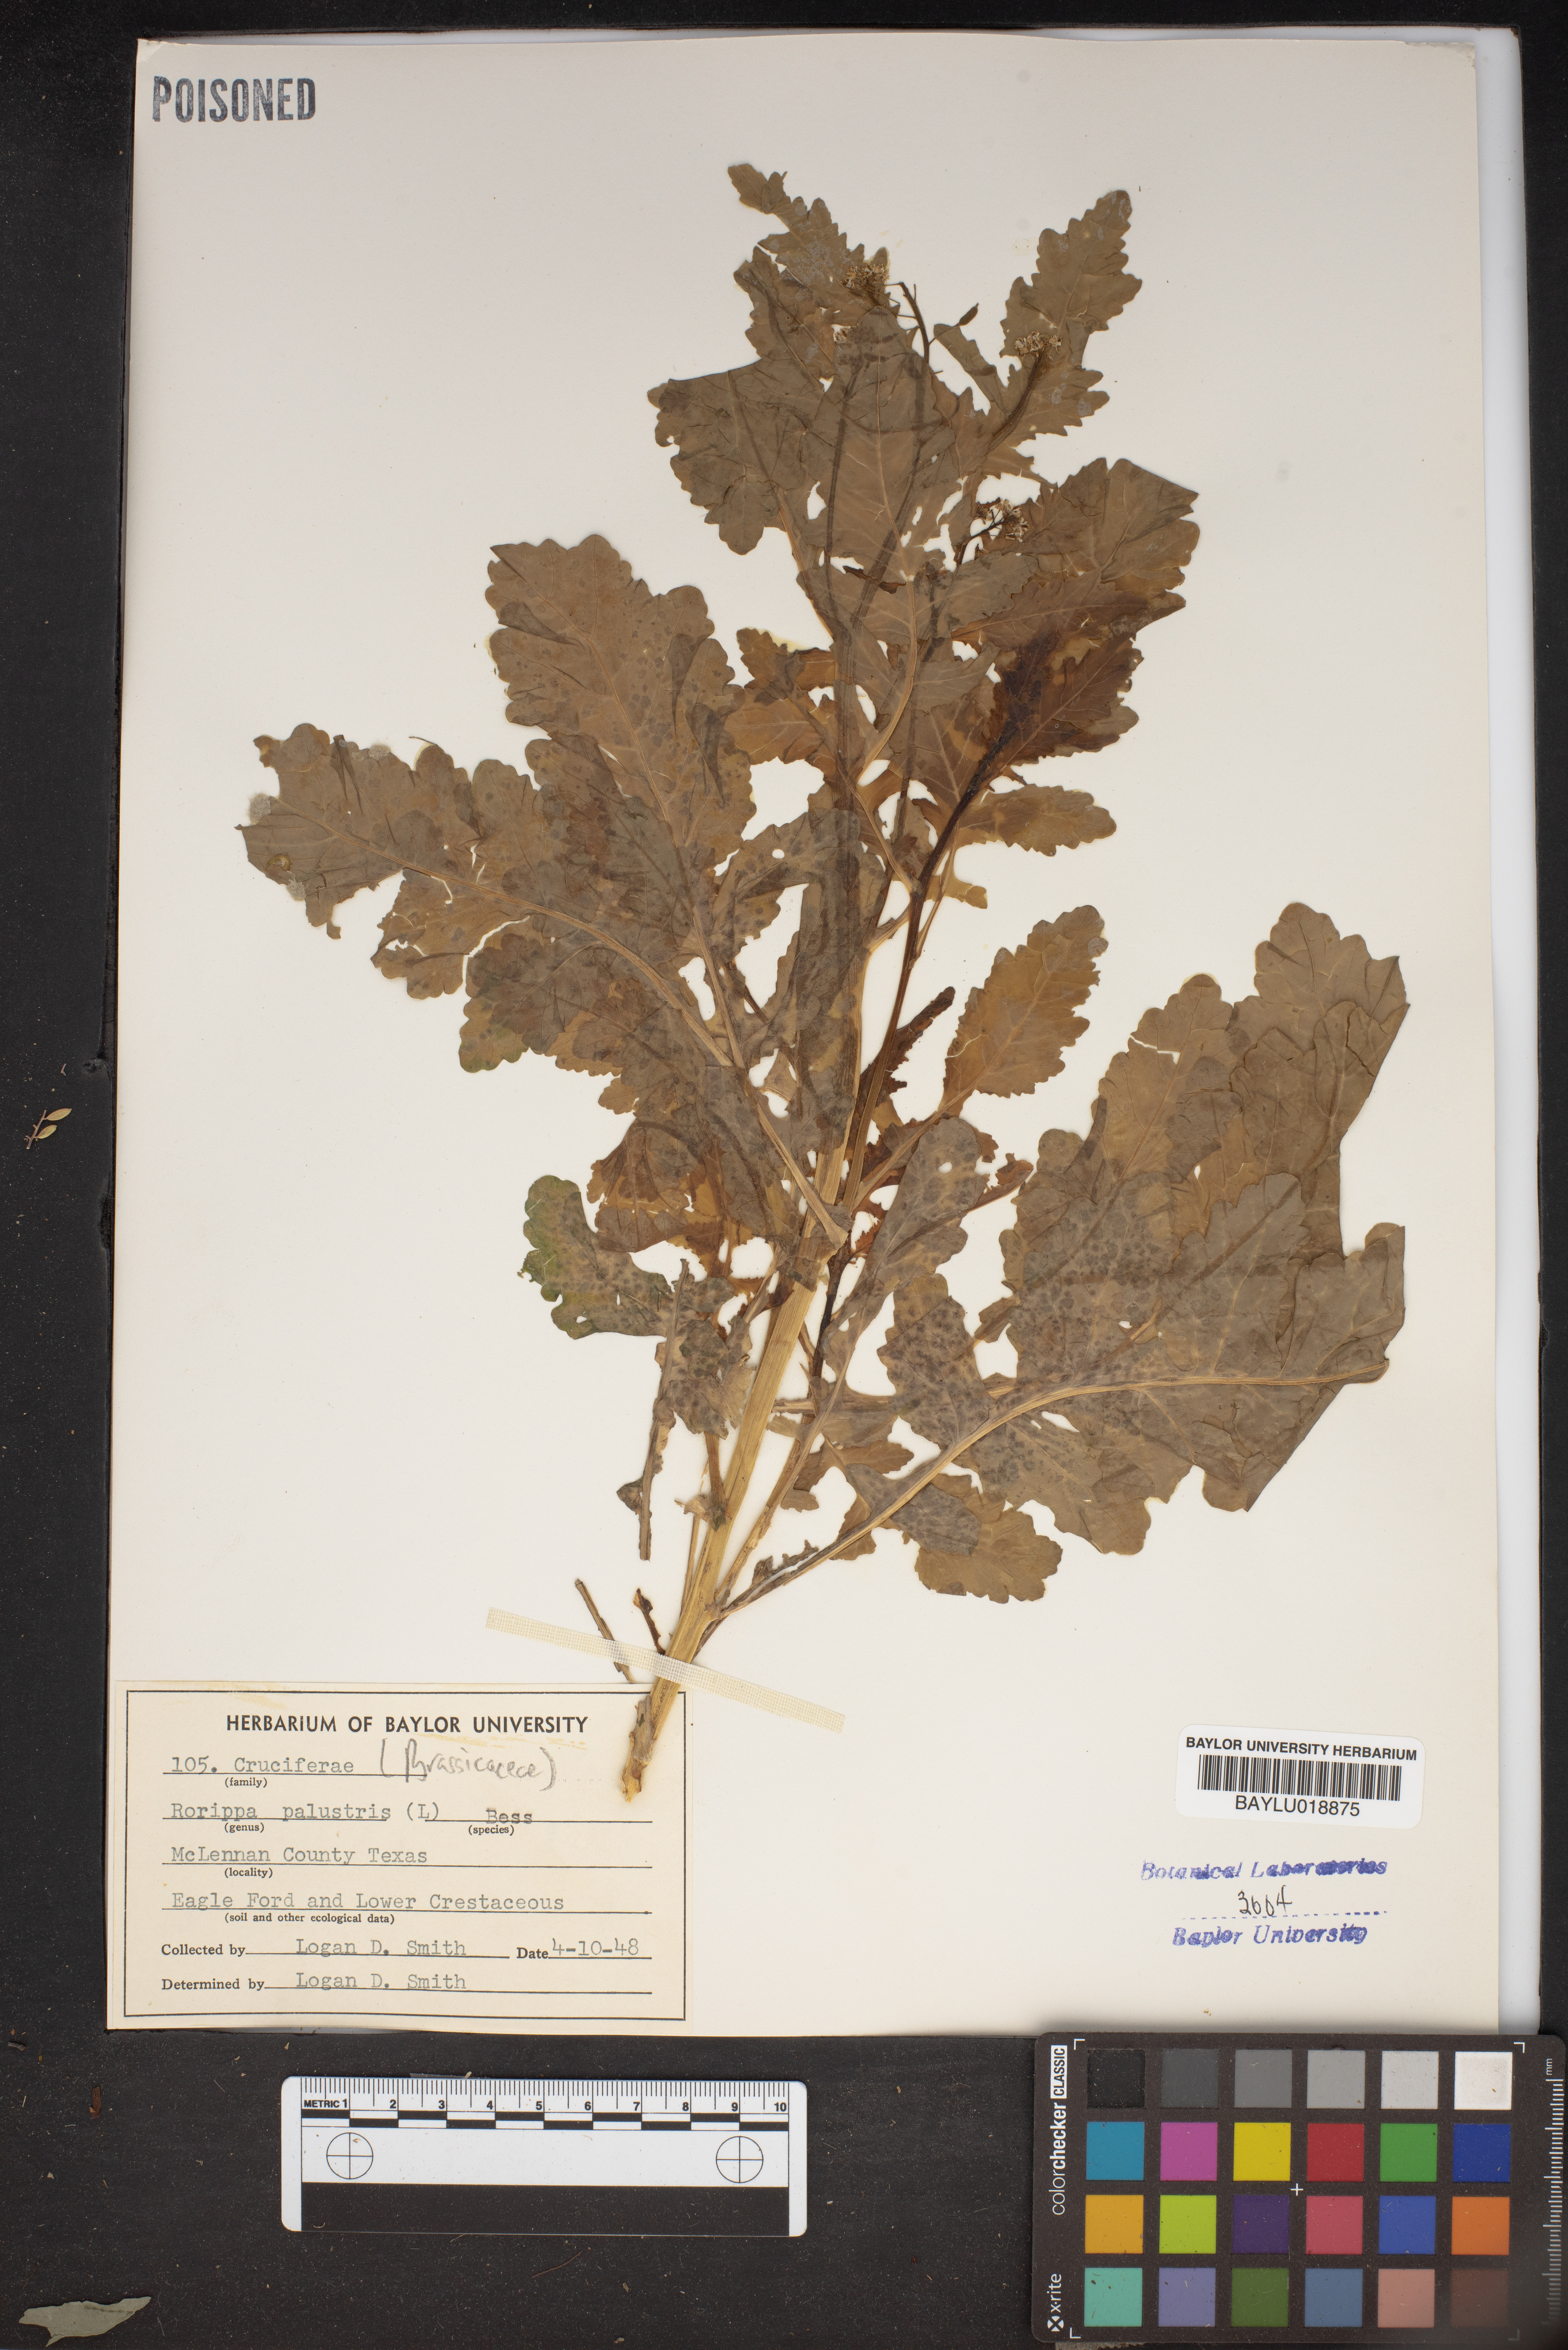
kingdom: Plantae
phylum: Tracheophyta
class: Magnoliopsida
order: Brassicales
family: Brassicaceae
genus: Rorippa
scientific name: Rorippa palustris
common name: Marsh yellow-cress
